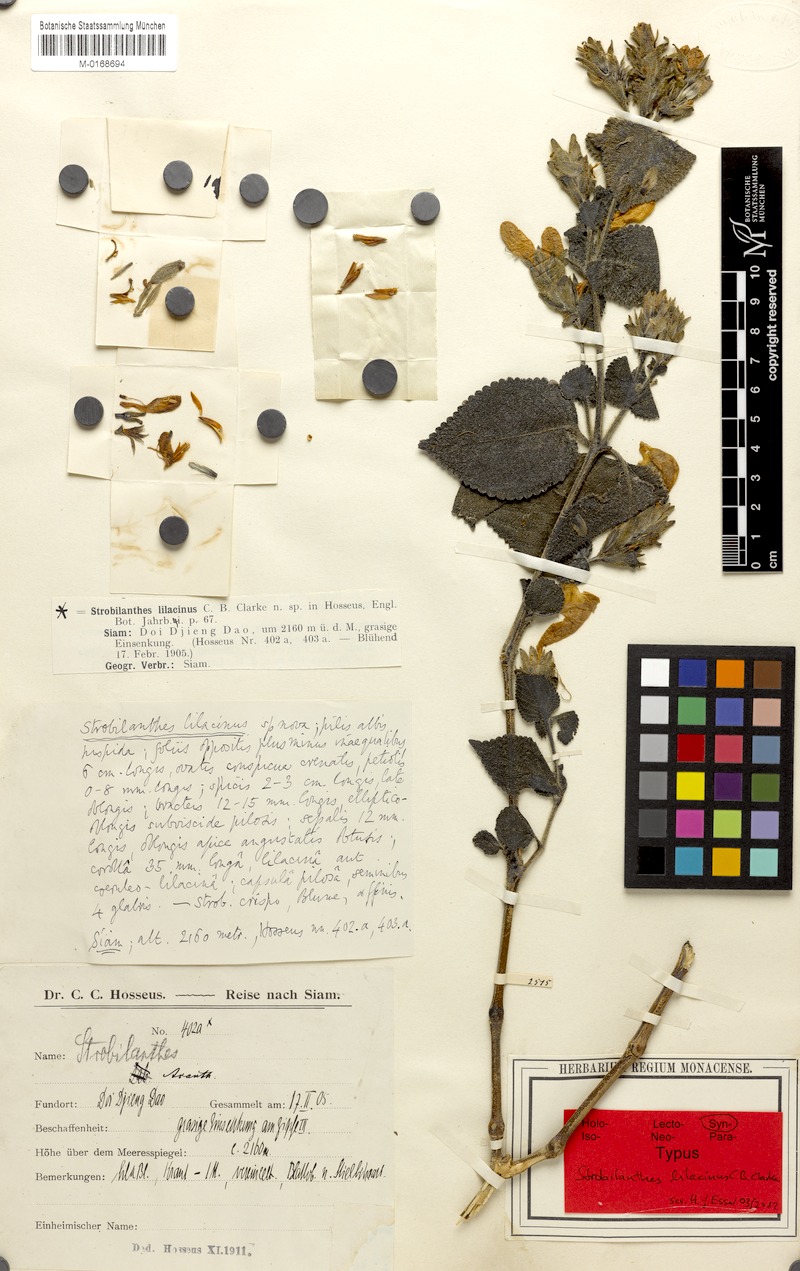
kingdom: Plantae
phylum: Tracheophyta
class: Magnoliopsida
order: Lamiales
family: Acanthaceae
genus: Strobilanthes
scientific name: Strobilanthes karensium
